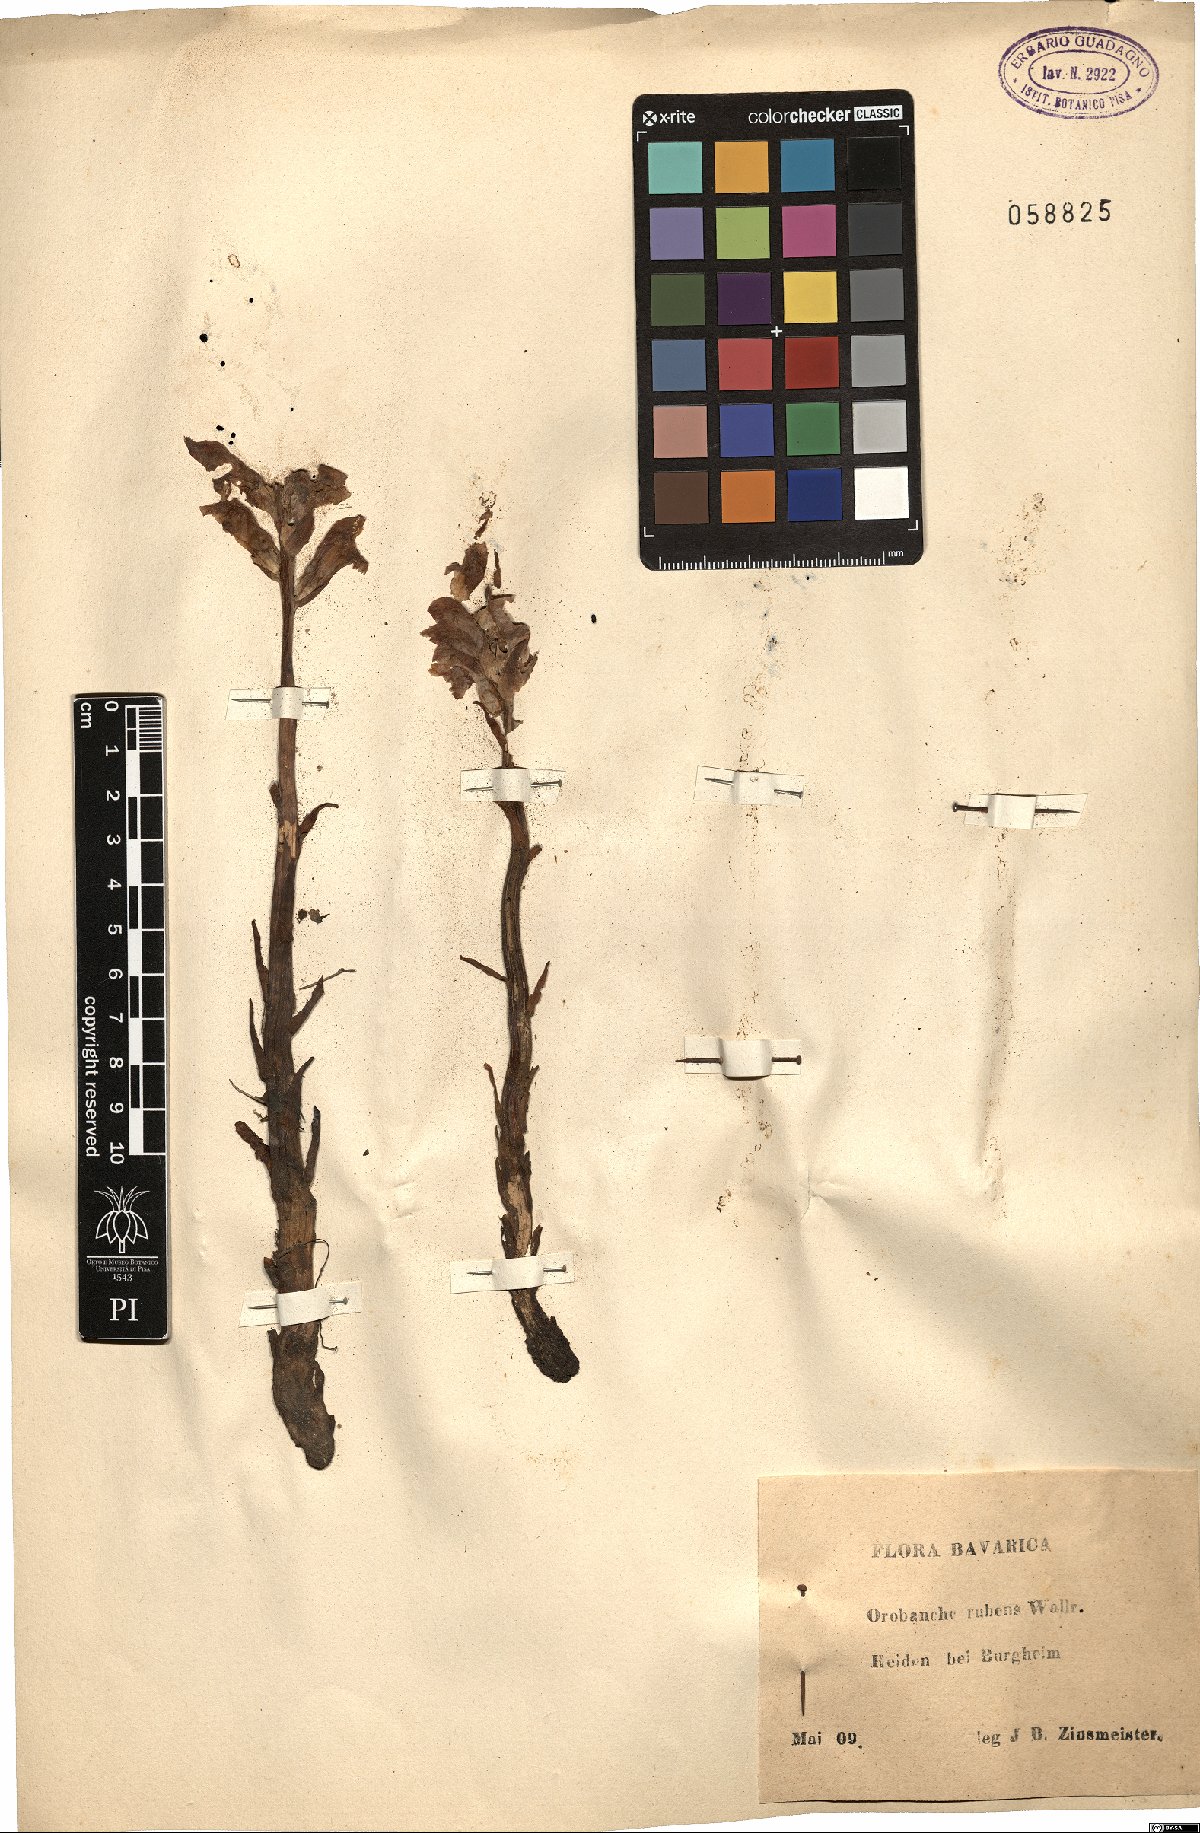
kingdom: Plantae
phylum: Tracheophyta
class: Magnoliopsida
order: Lamiales
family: Orobanchaceae
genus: Orobanche
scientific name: Orobanche lutea
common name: Yellow broomrape
